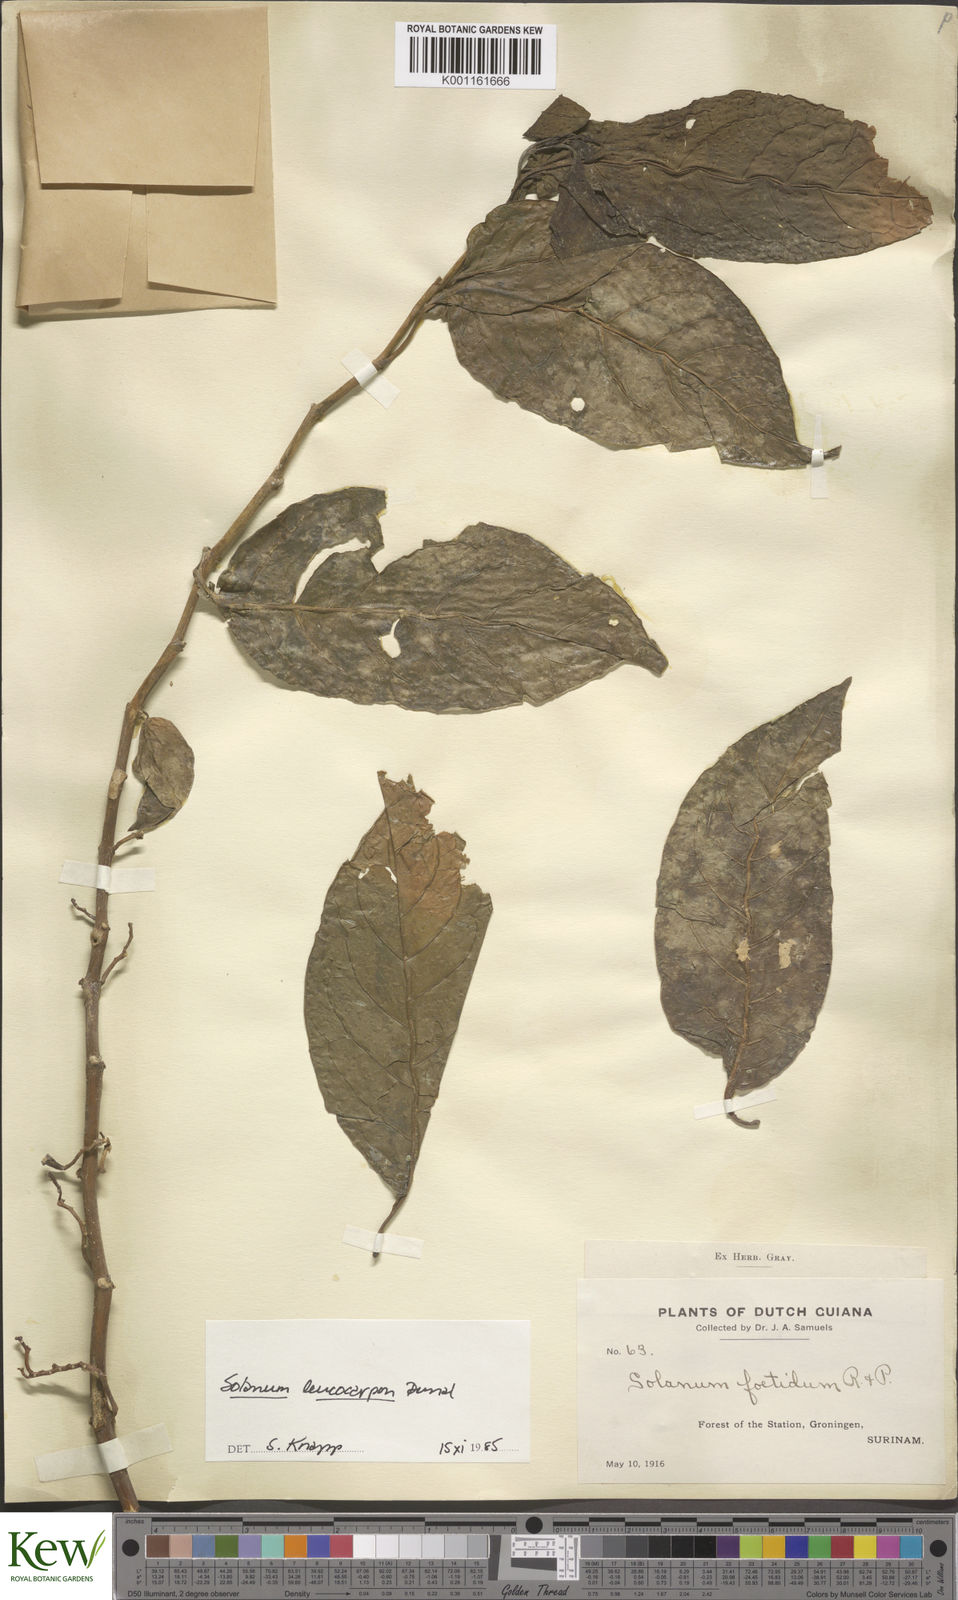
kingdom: Plantae
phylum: Tracheophyta
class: Magnoliopsida
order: Solanales
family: Solanaceae
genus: Solanum
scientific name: Solanum leucocarpon
